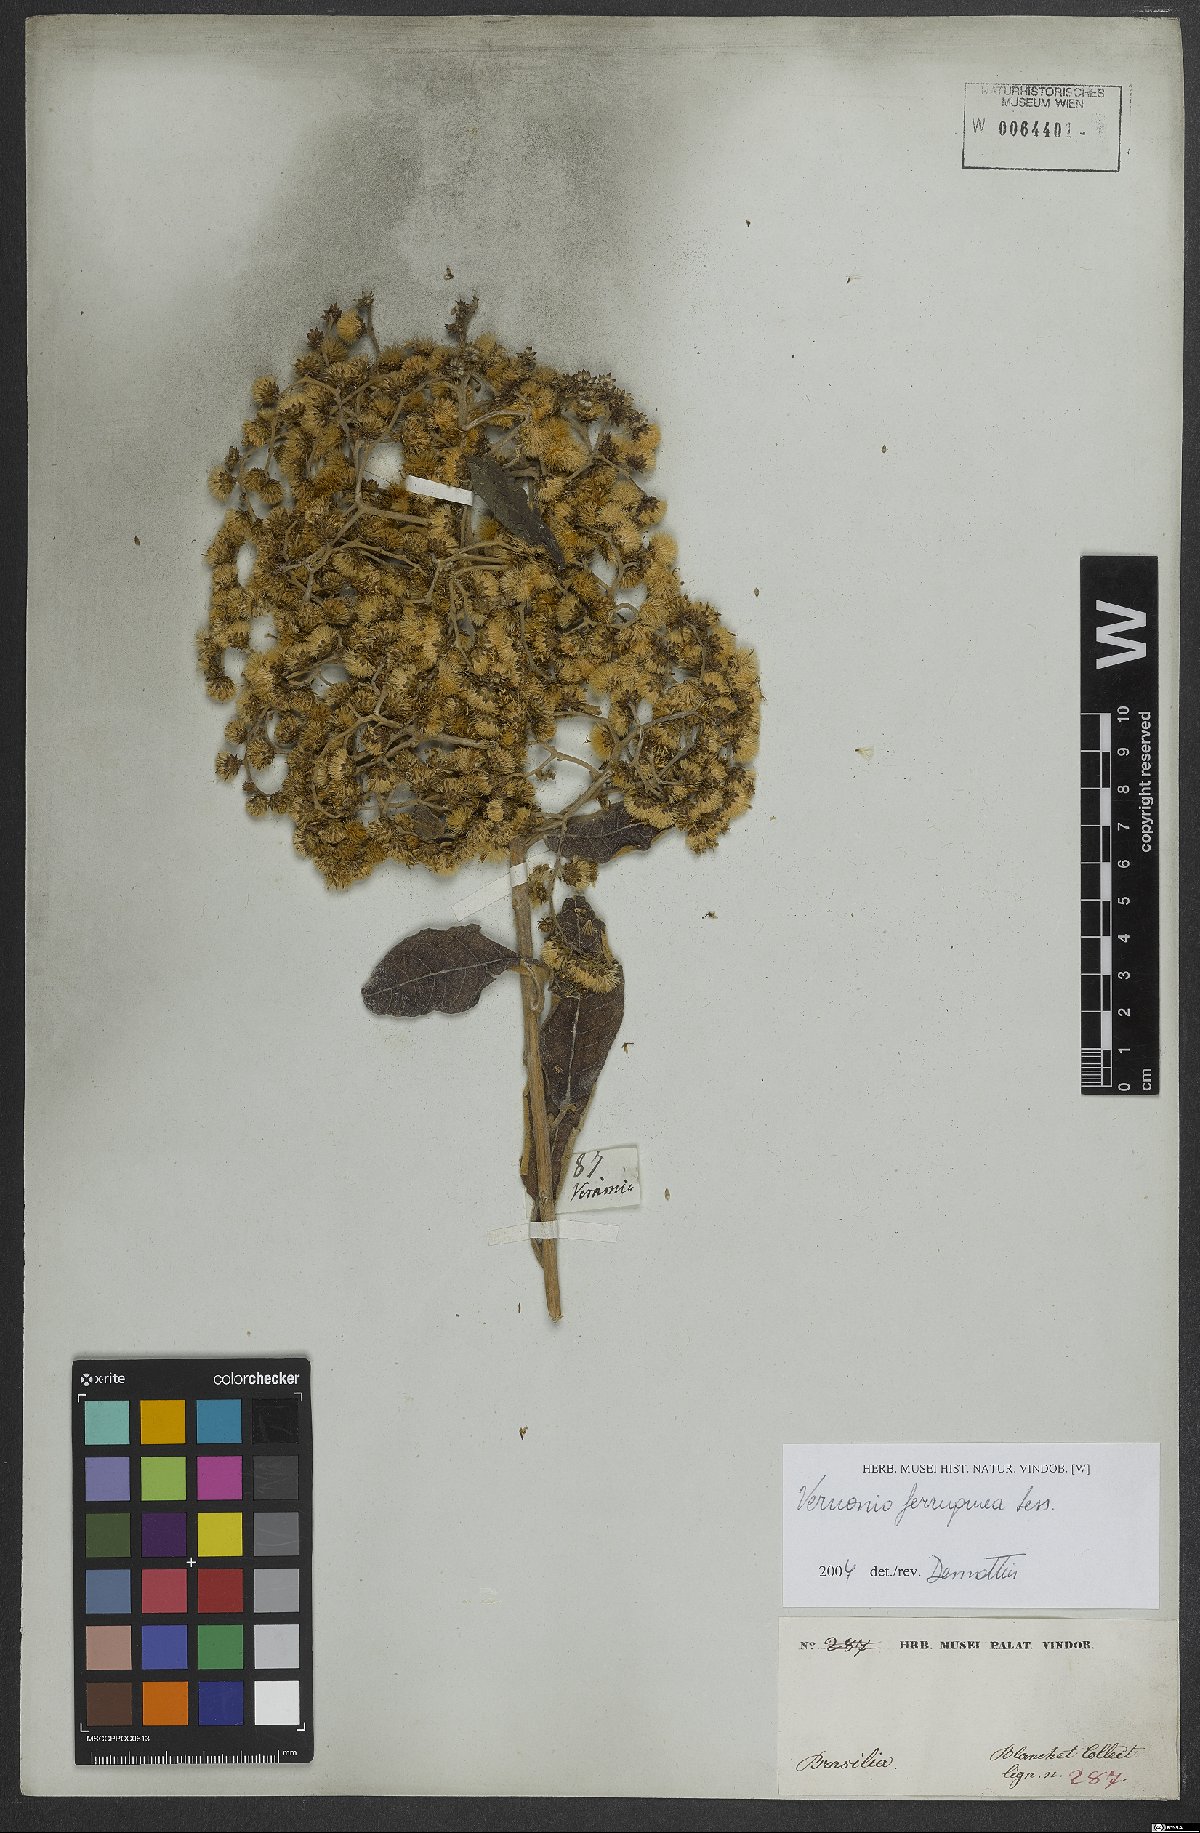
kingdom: Plantae
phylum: Tracheophyta
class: Magnoliopsida
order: Asterales
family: Asteraceae
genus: Vernonanthura
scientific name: Vernonanthura ferruginea
